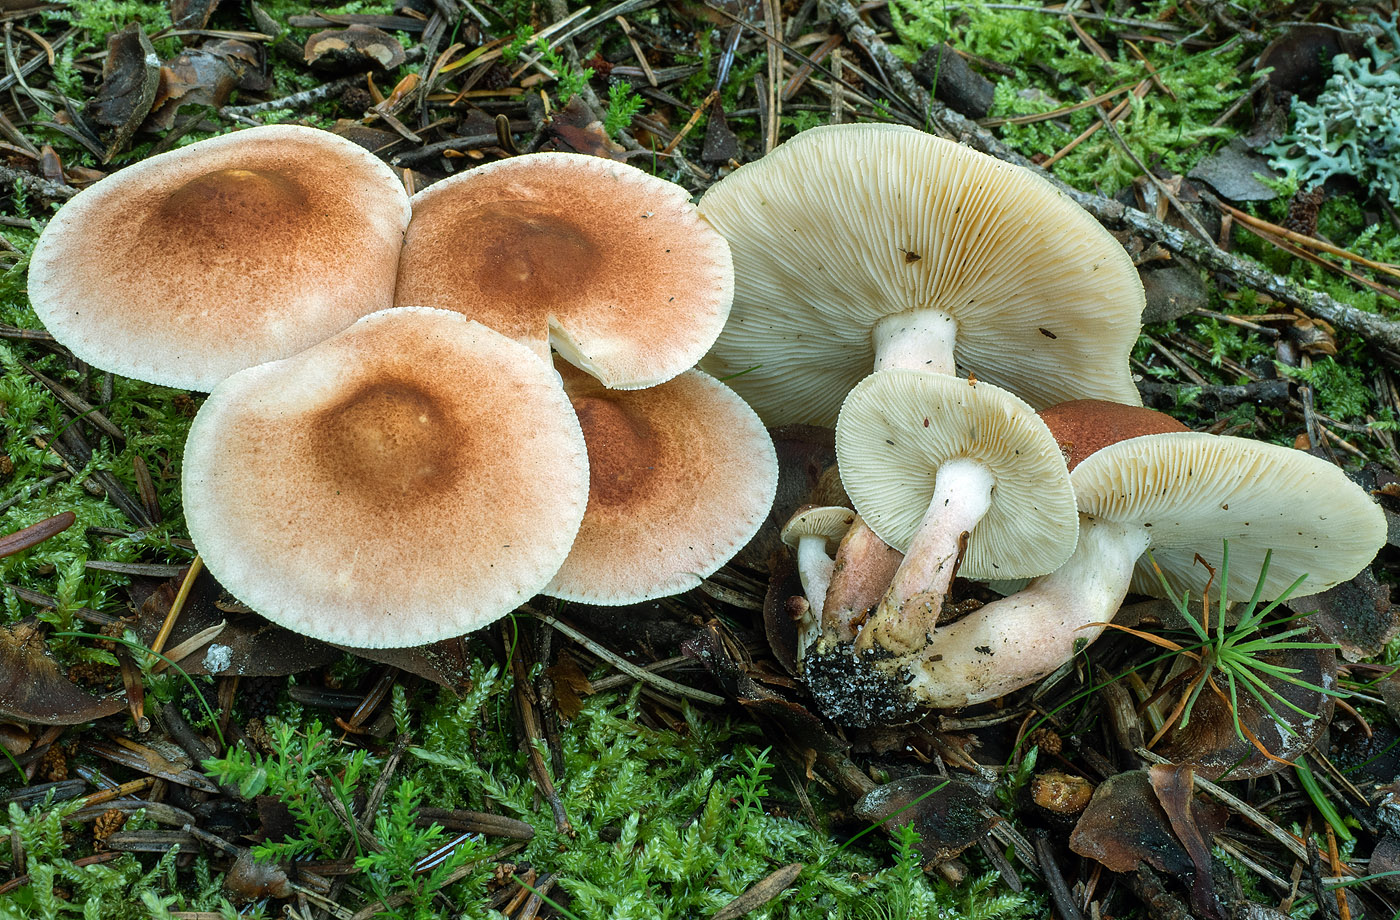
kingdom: Fungi
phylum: Basidiomycota
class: Agaricomycetes
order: Agaricales
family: Tricholomataceae
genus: Tricholomopsis
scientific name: Tricholomopsis rutilans
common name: purpur-væbnerhat
